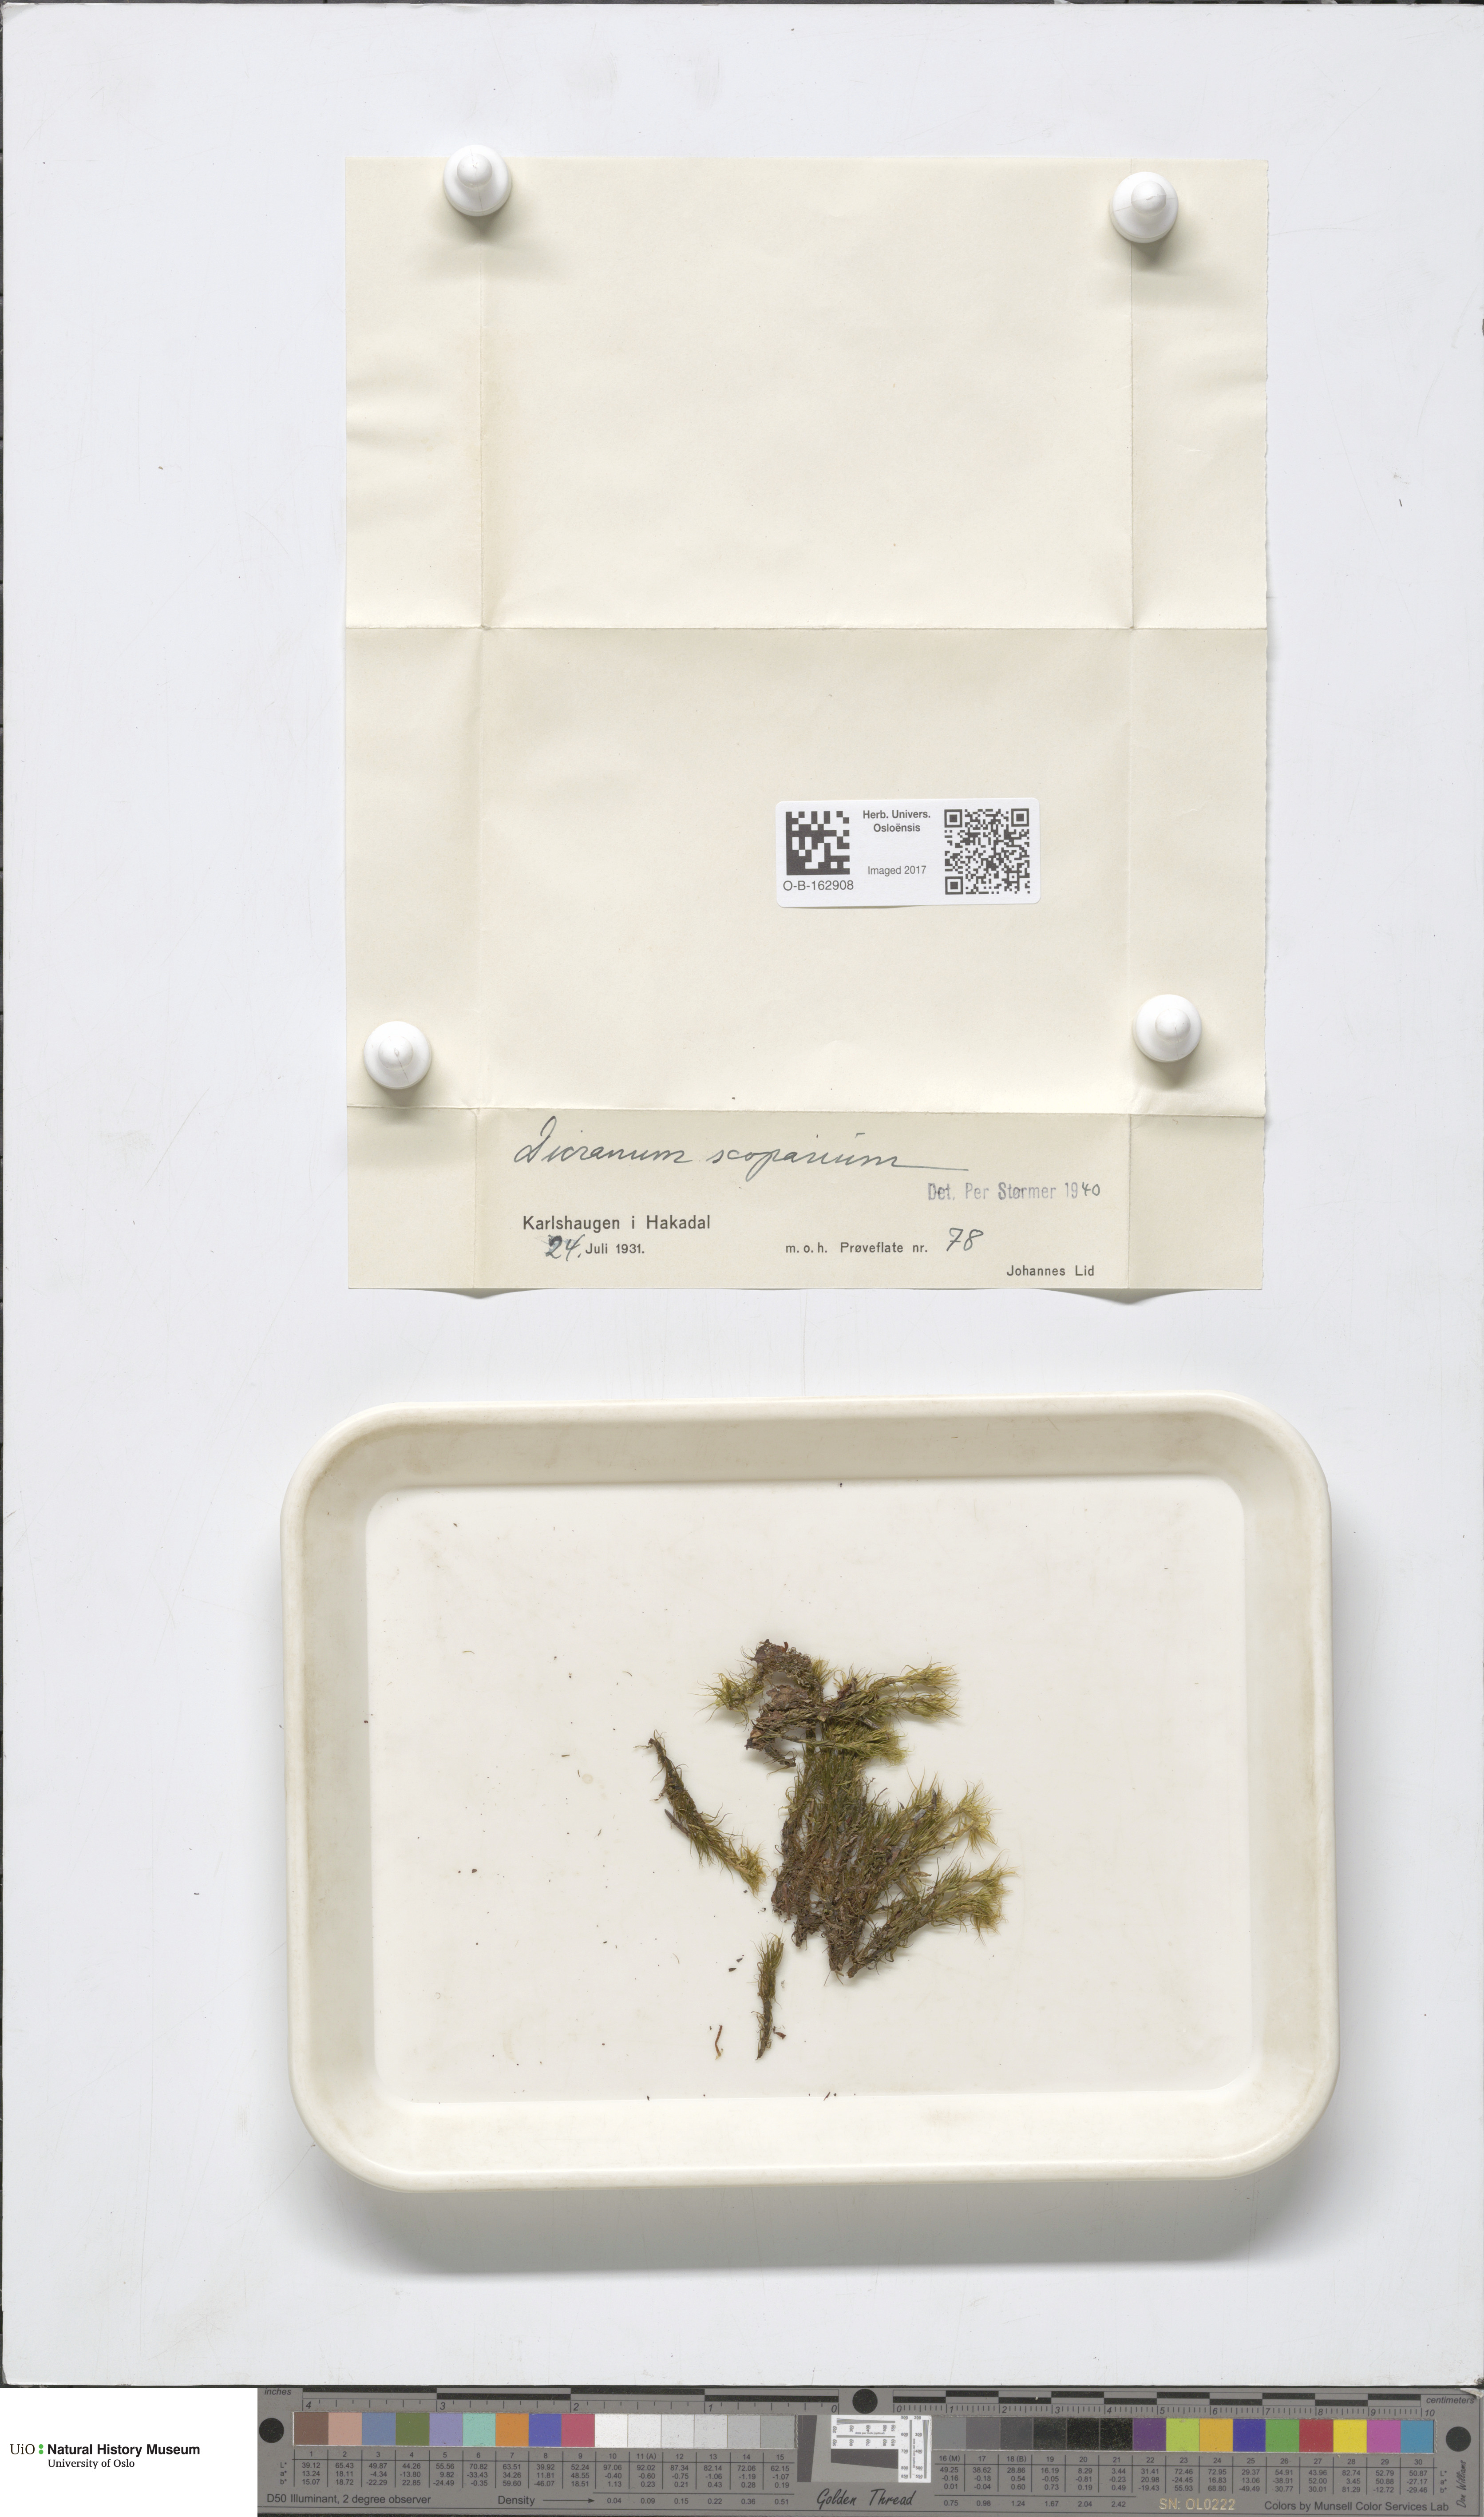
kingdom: Plantae
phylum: Bryophyta
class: Bryopsida
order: Dicranales
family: Dicranaceae
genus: Dicranum
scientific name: Dicranum scoparium
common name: Broom fork-moss
